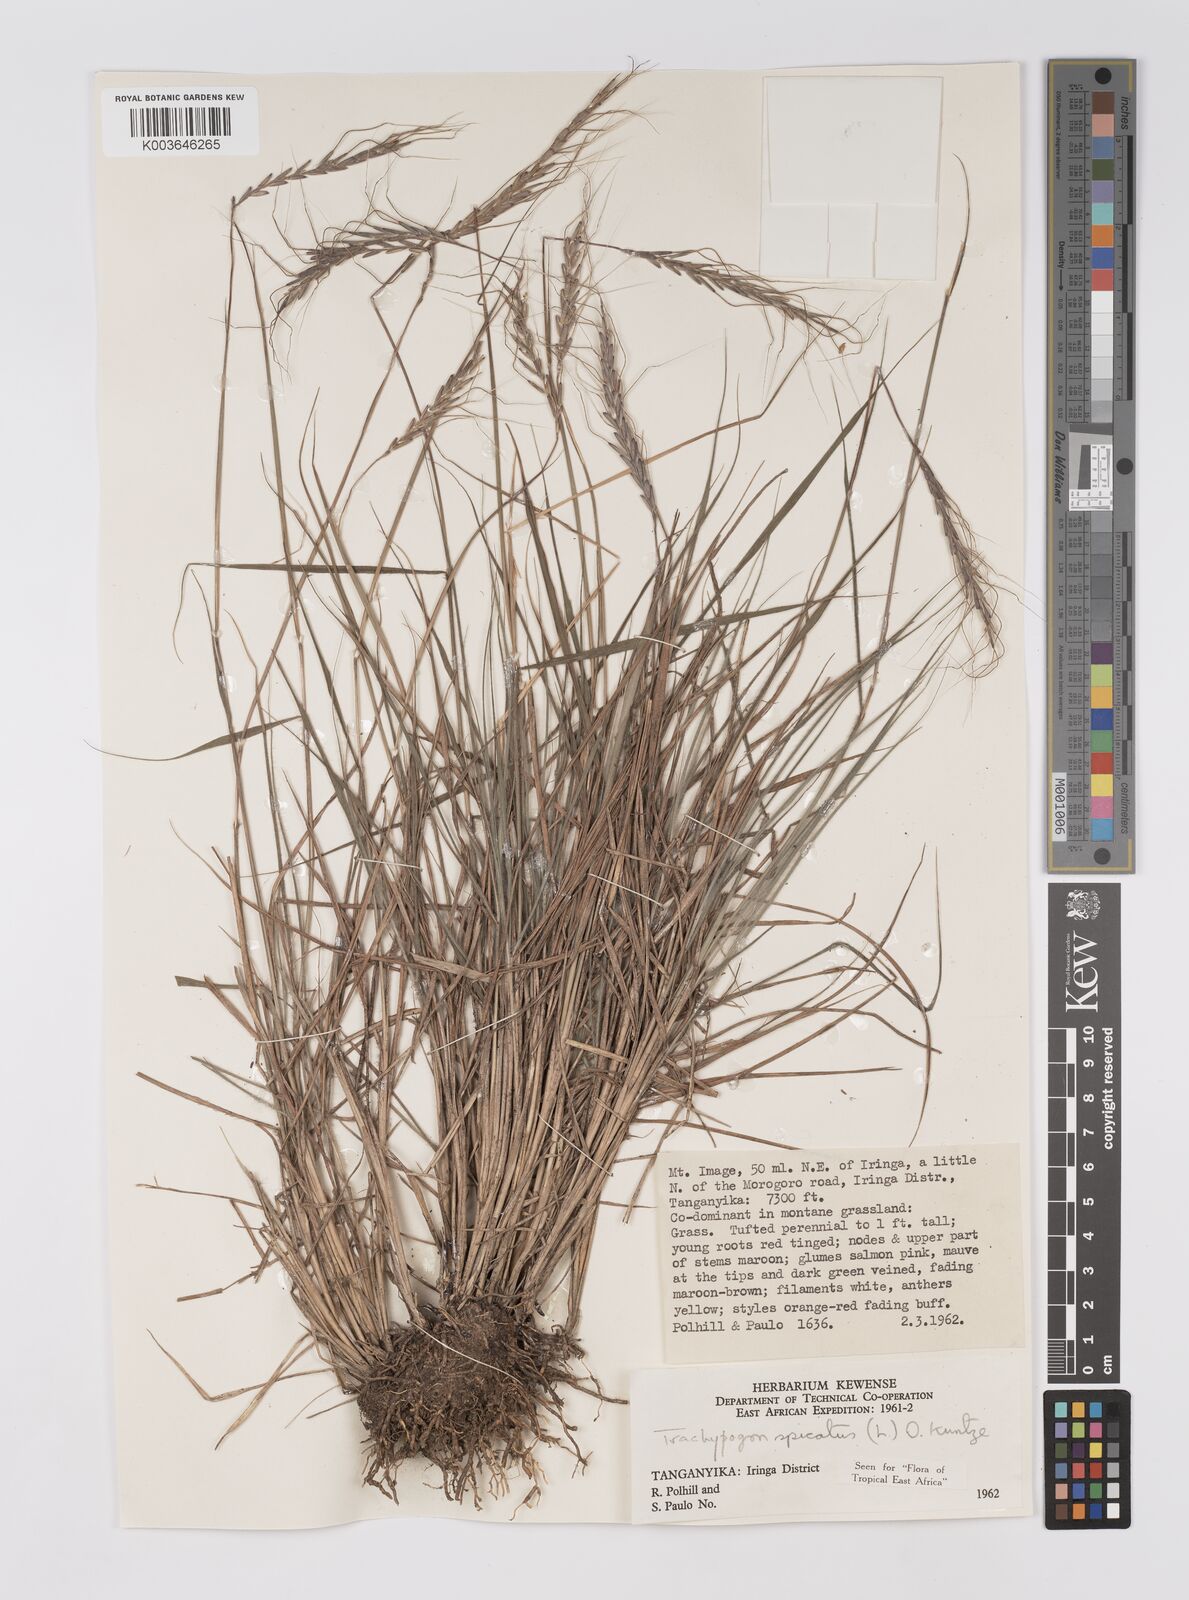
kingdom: Plantae
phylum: Tracheophyta
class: Liliopsida
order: Poales
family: Poaceae
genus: Trachypogon
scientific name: Trachypogon spicatus
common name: Crinkle-awn
